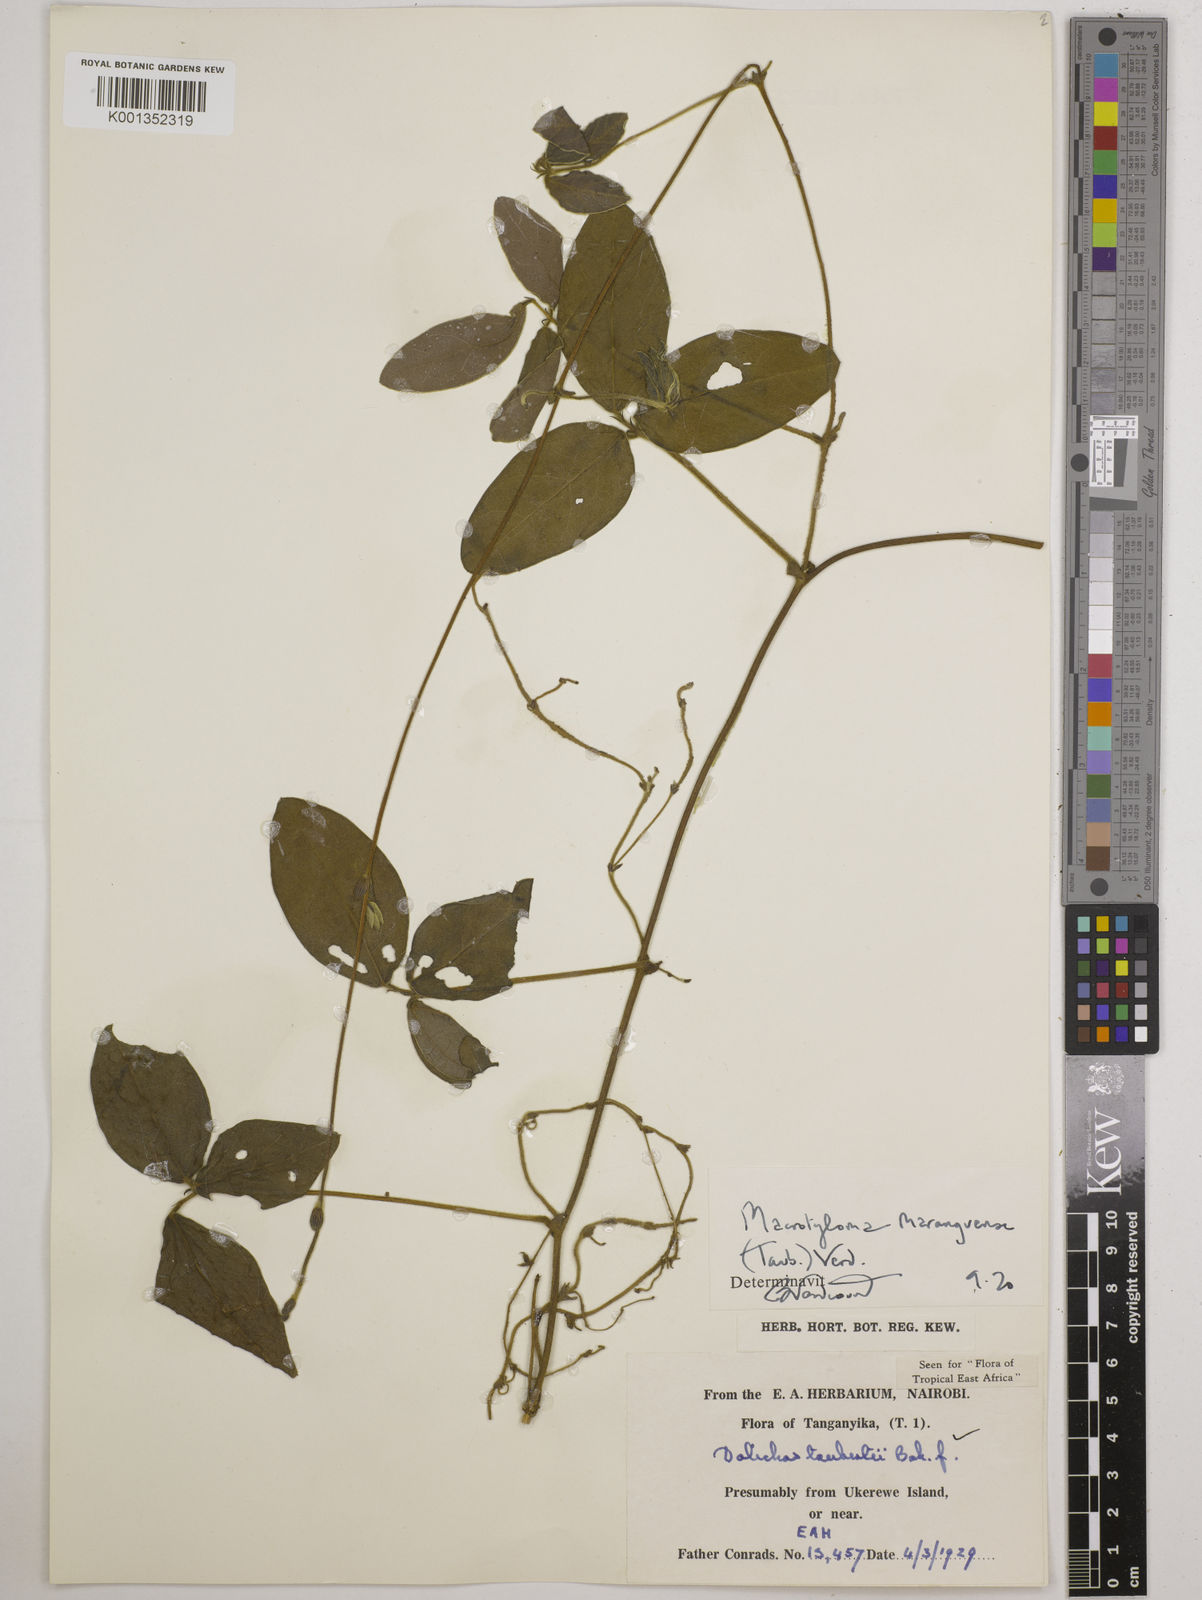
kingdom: Plantae
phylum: Tracheophyta
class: Magnoliopsida
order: Fabales
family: Fabaceae
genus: Macrotyloma
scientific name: Macrotyloma maranguense
